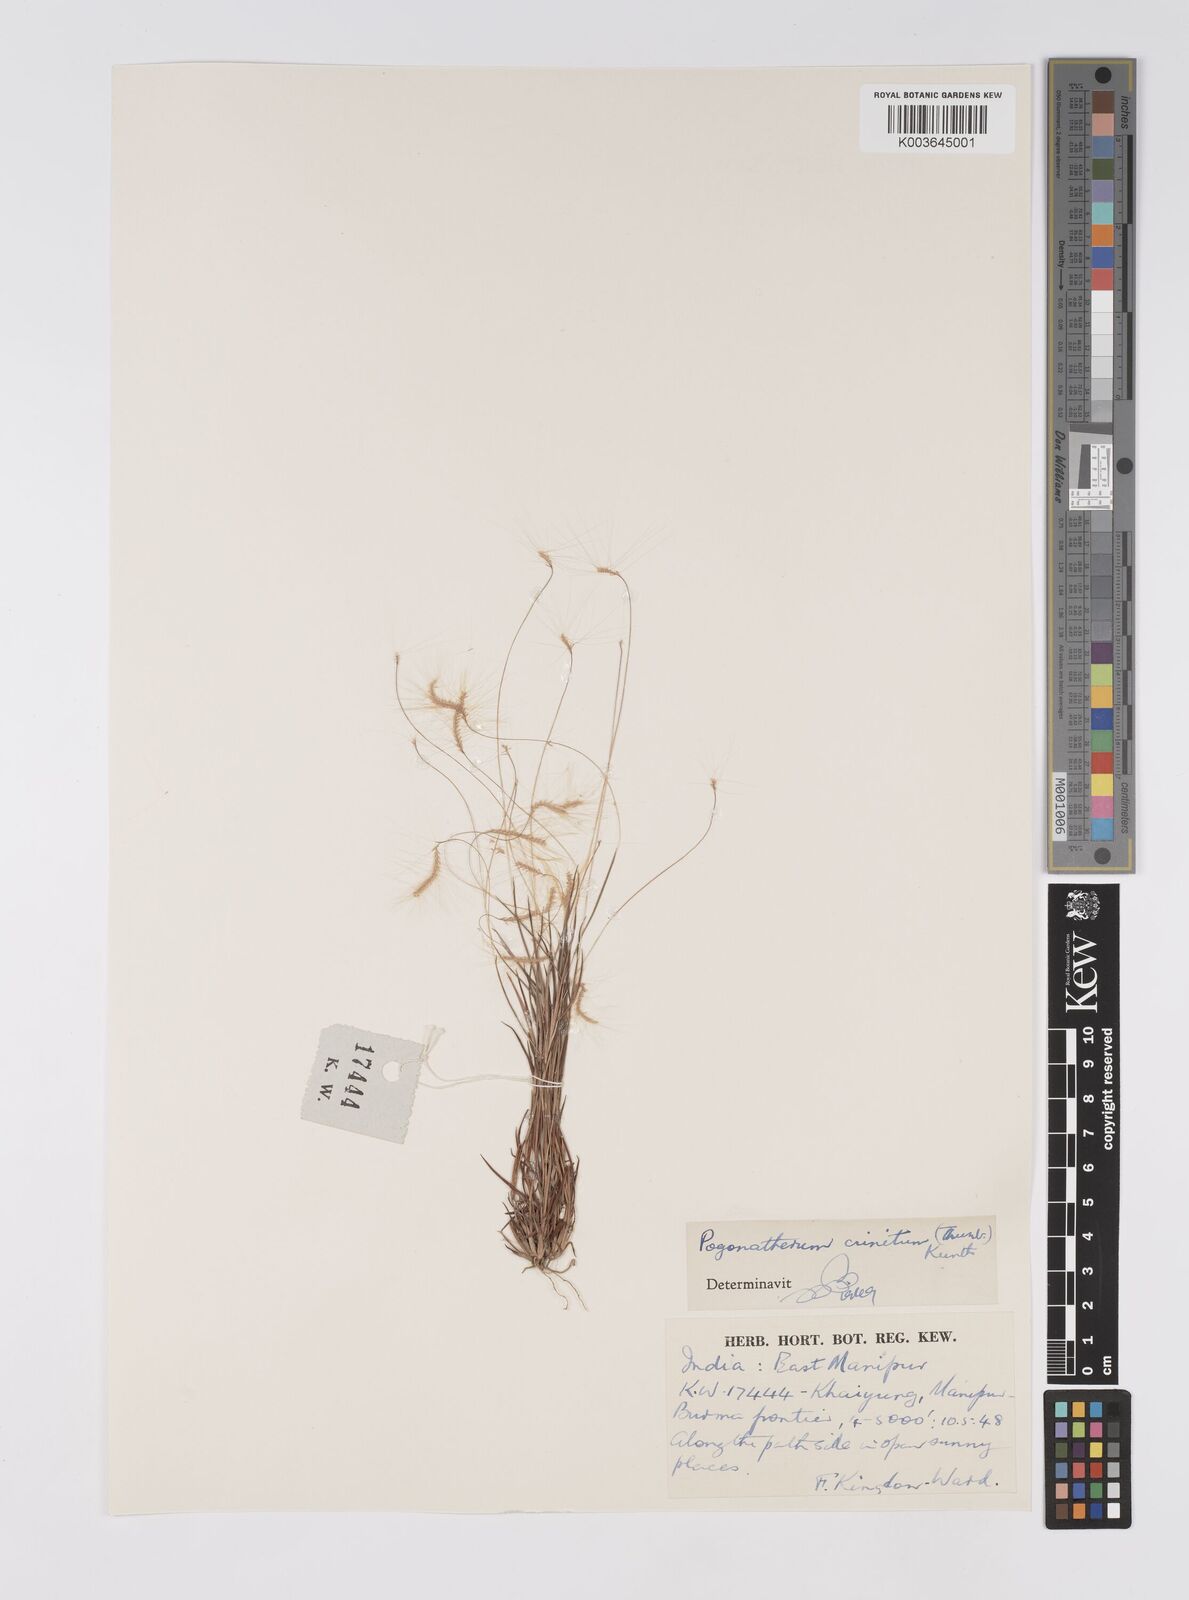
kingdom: Plantae
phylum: Tracheophyta
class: Liliopsida
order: Poales
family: Poaceae
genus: Pogonatherum
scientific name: Pogonatherum crinitum
